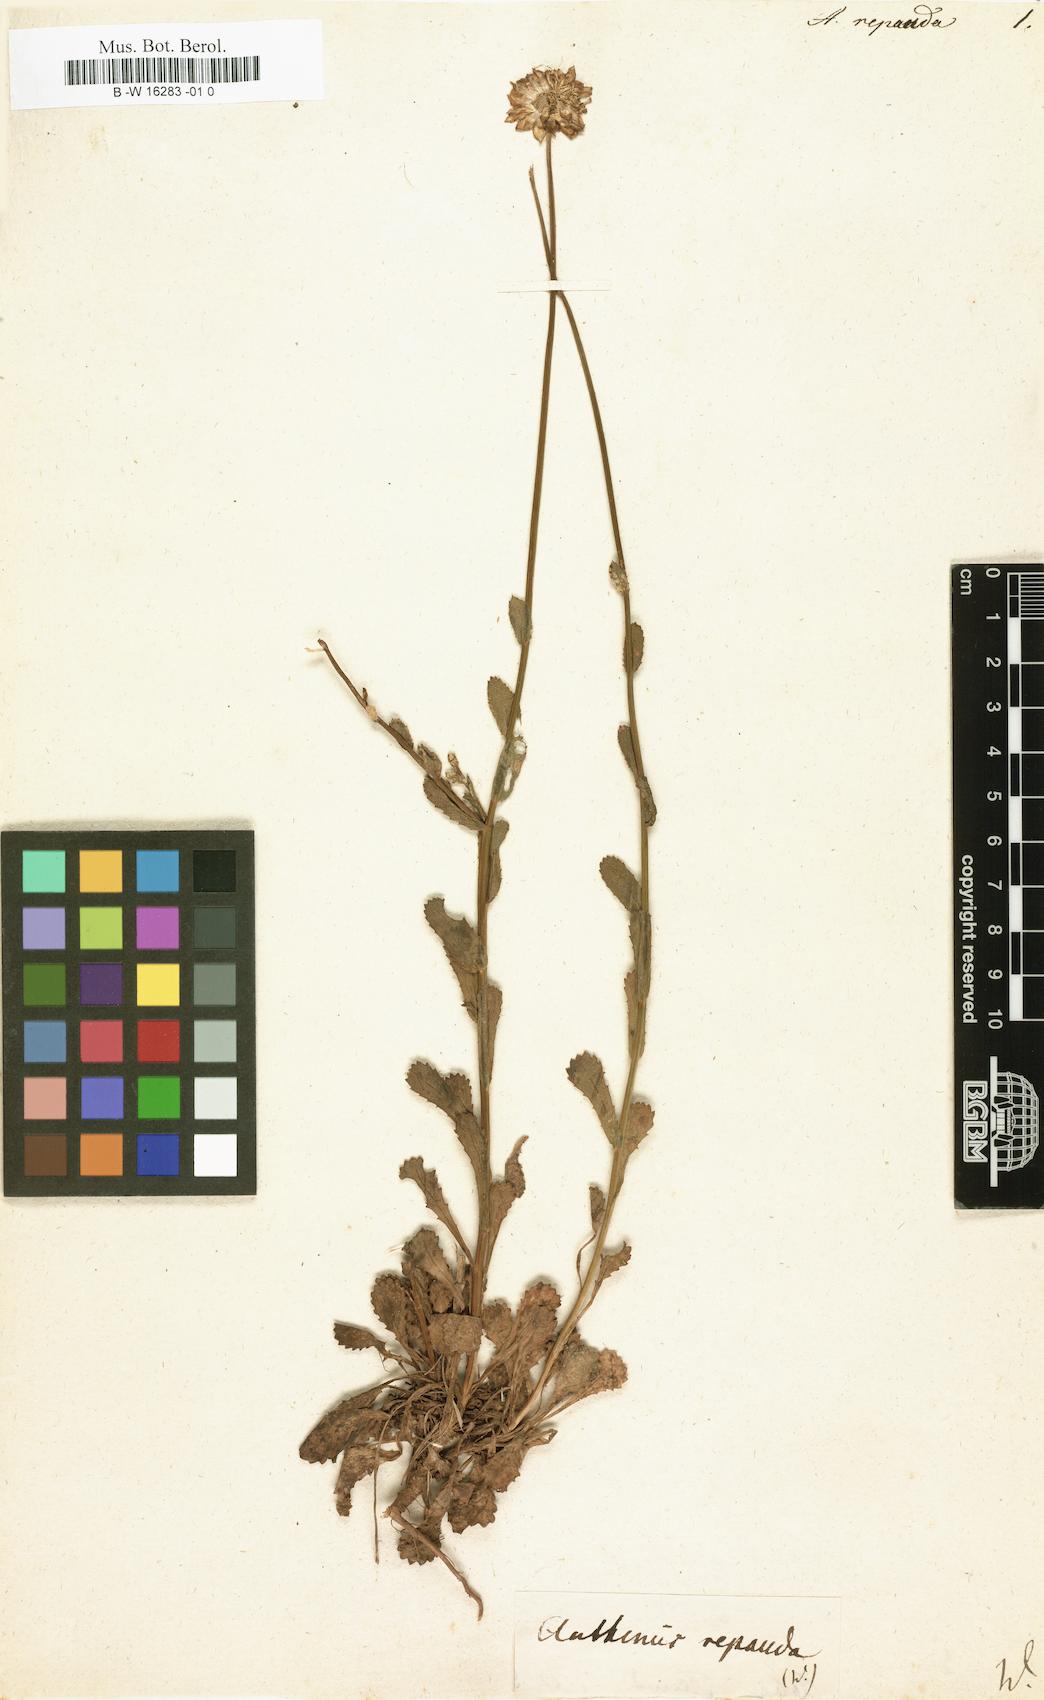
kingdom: Plantae
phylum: Tracheophyta
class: Magnoliopsida
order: Asterales
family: Asteraceae
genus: Lepidophorum
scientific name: Lepidophorum repandum
